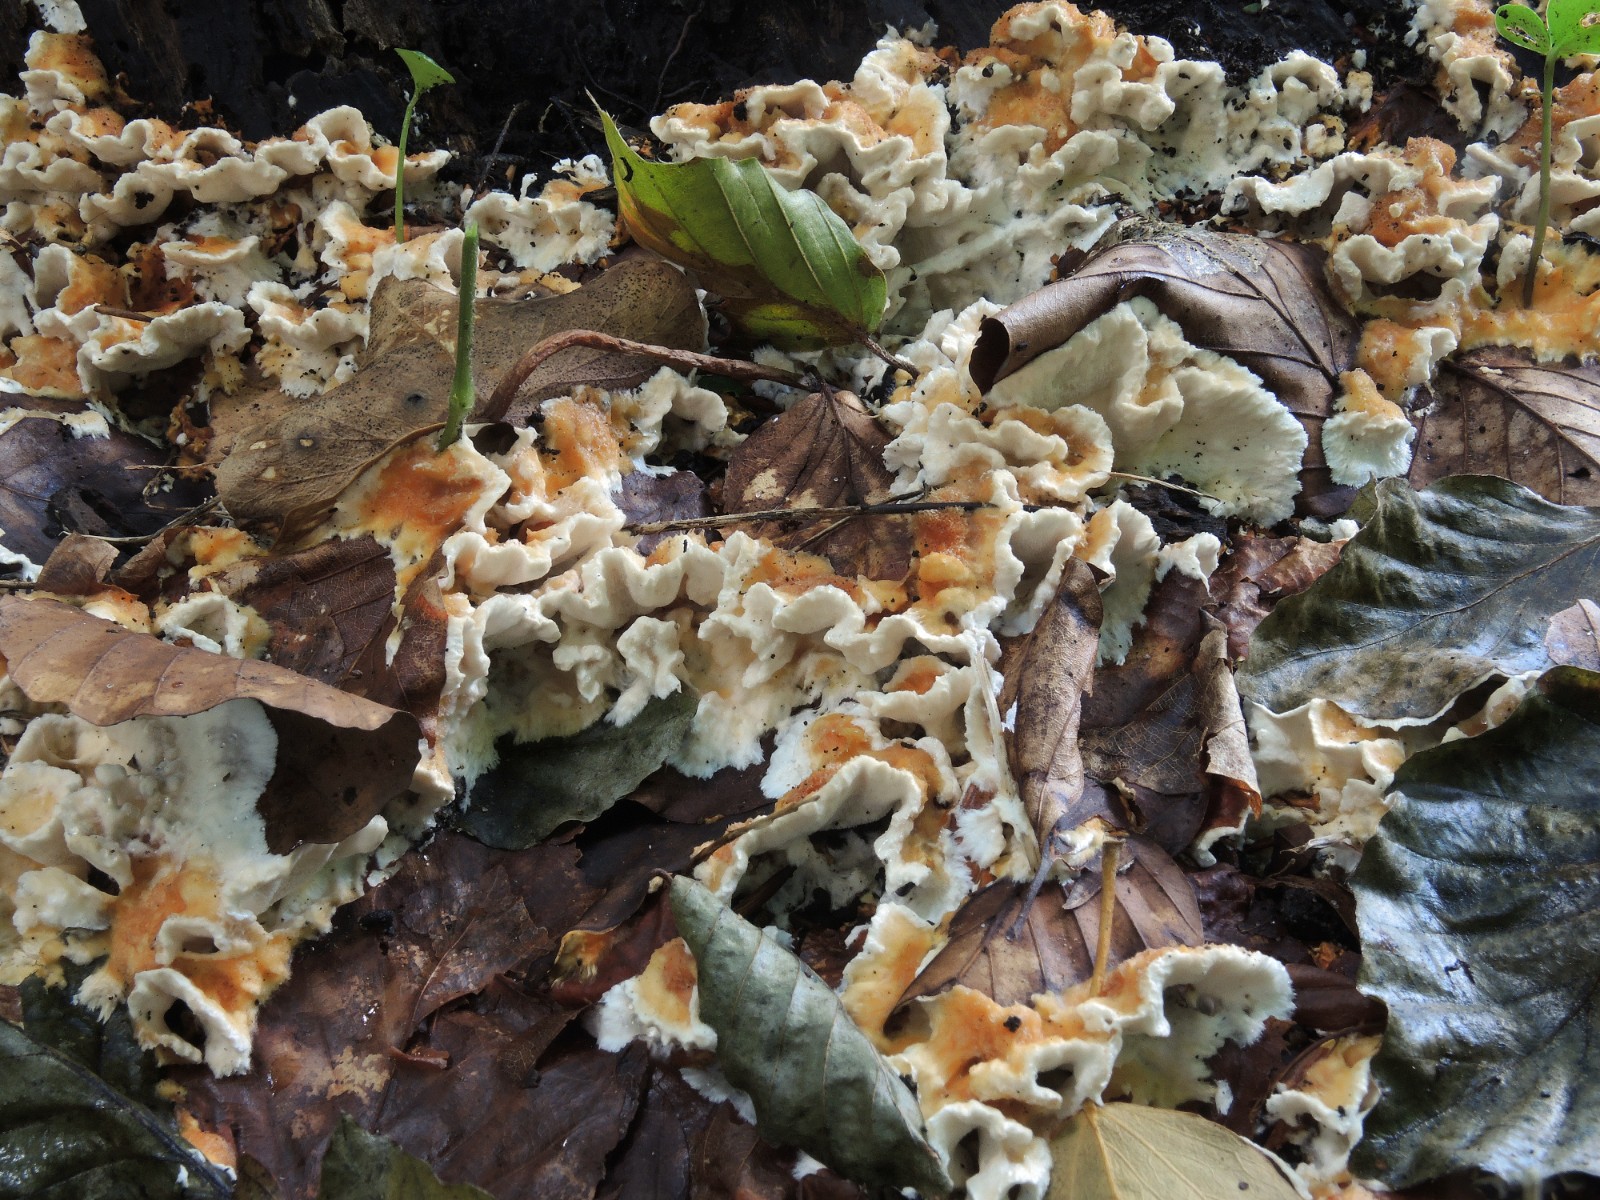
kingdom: Fungi
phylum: Basidiomycota
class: Agaricomycetes
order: Polyporales
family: Steccherinaceae
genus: Loweomyces
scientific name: Loweomyces wynneae
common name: krybende blødporesvamp
